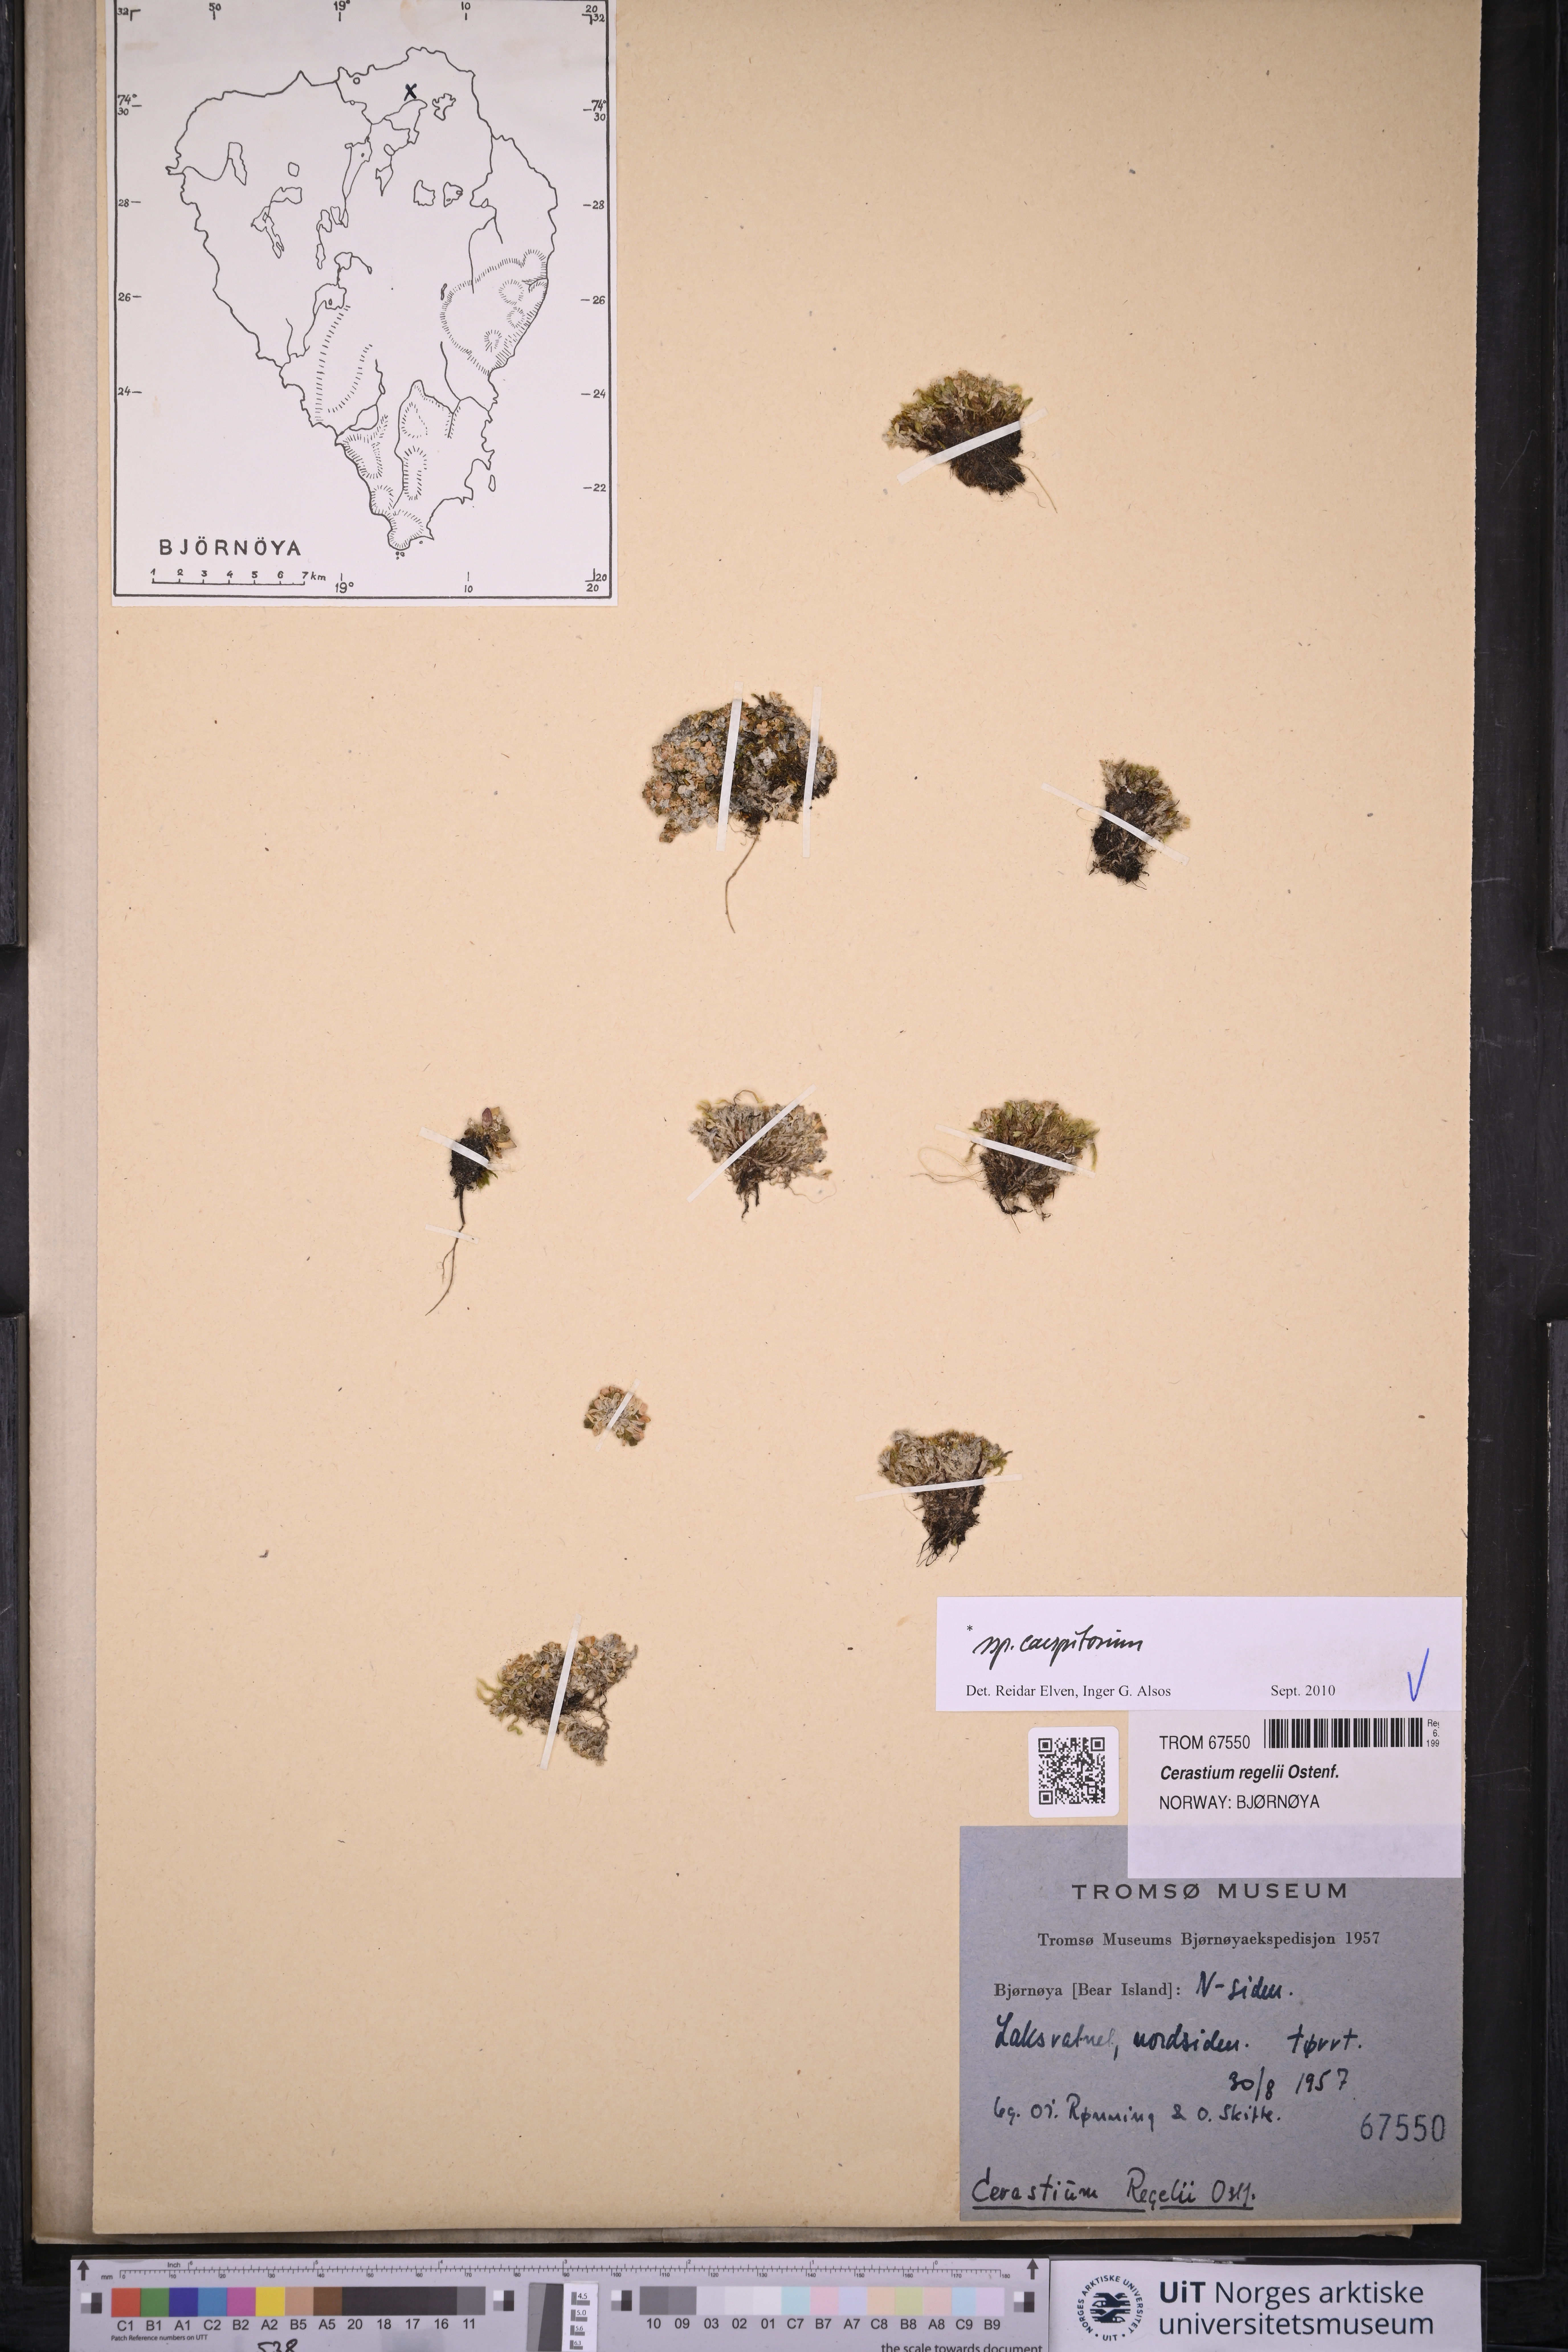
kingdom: Plantae
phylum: Tracheophyta
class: Magnoliopsida
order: Caryophyllales
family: Caryophyllaceae
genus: Cerastium
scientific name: Cerastium regelii
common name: Regel's chickweed
